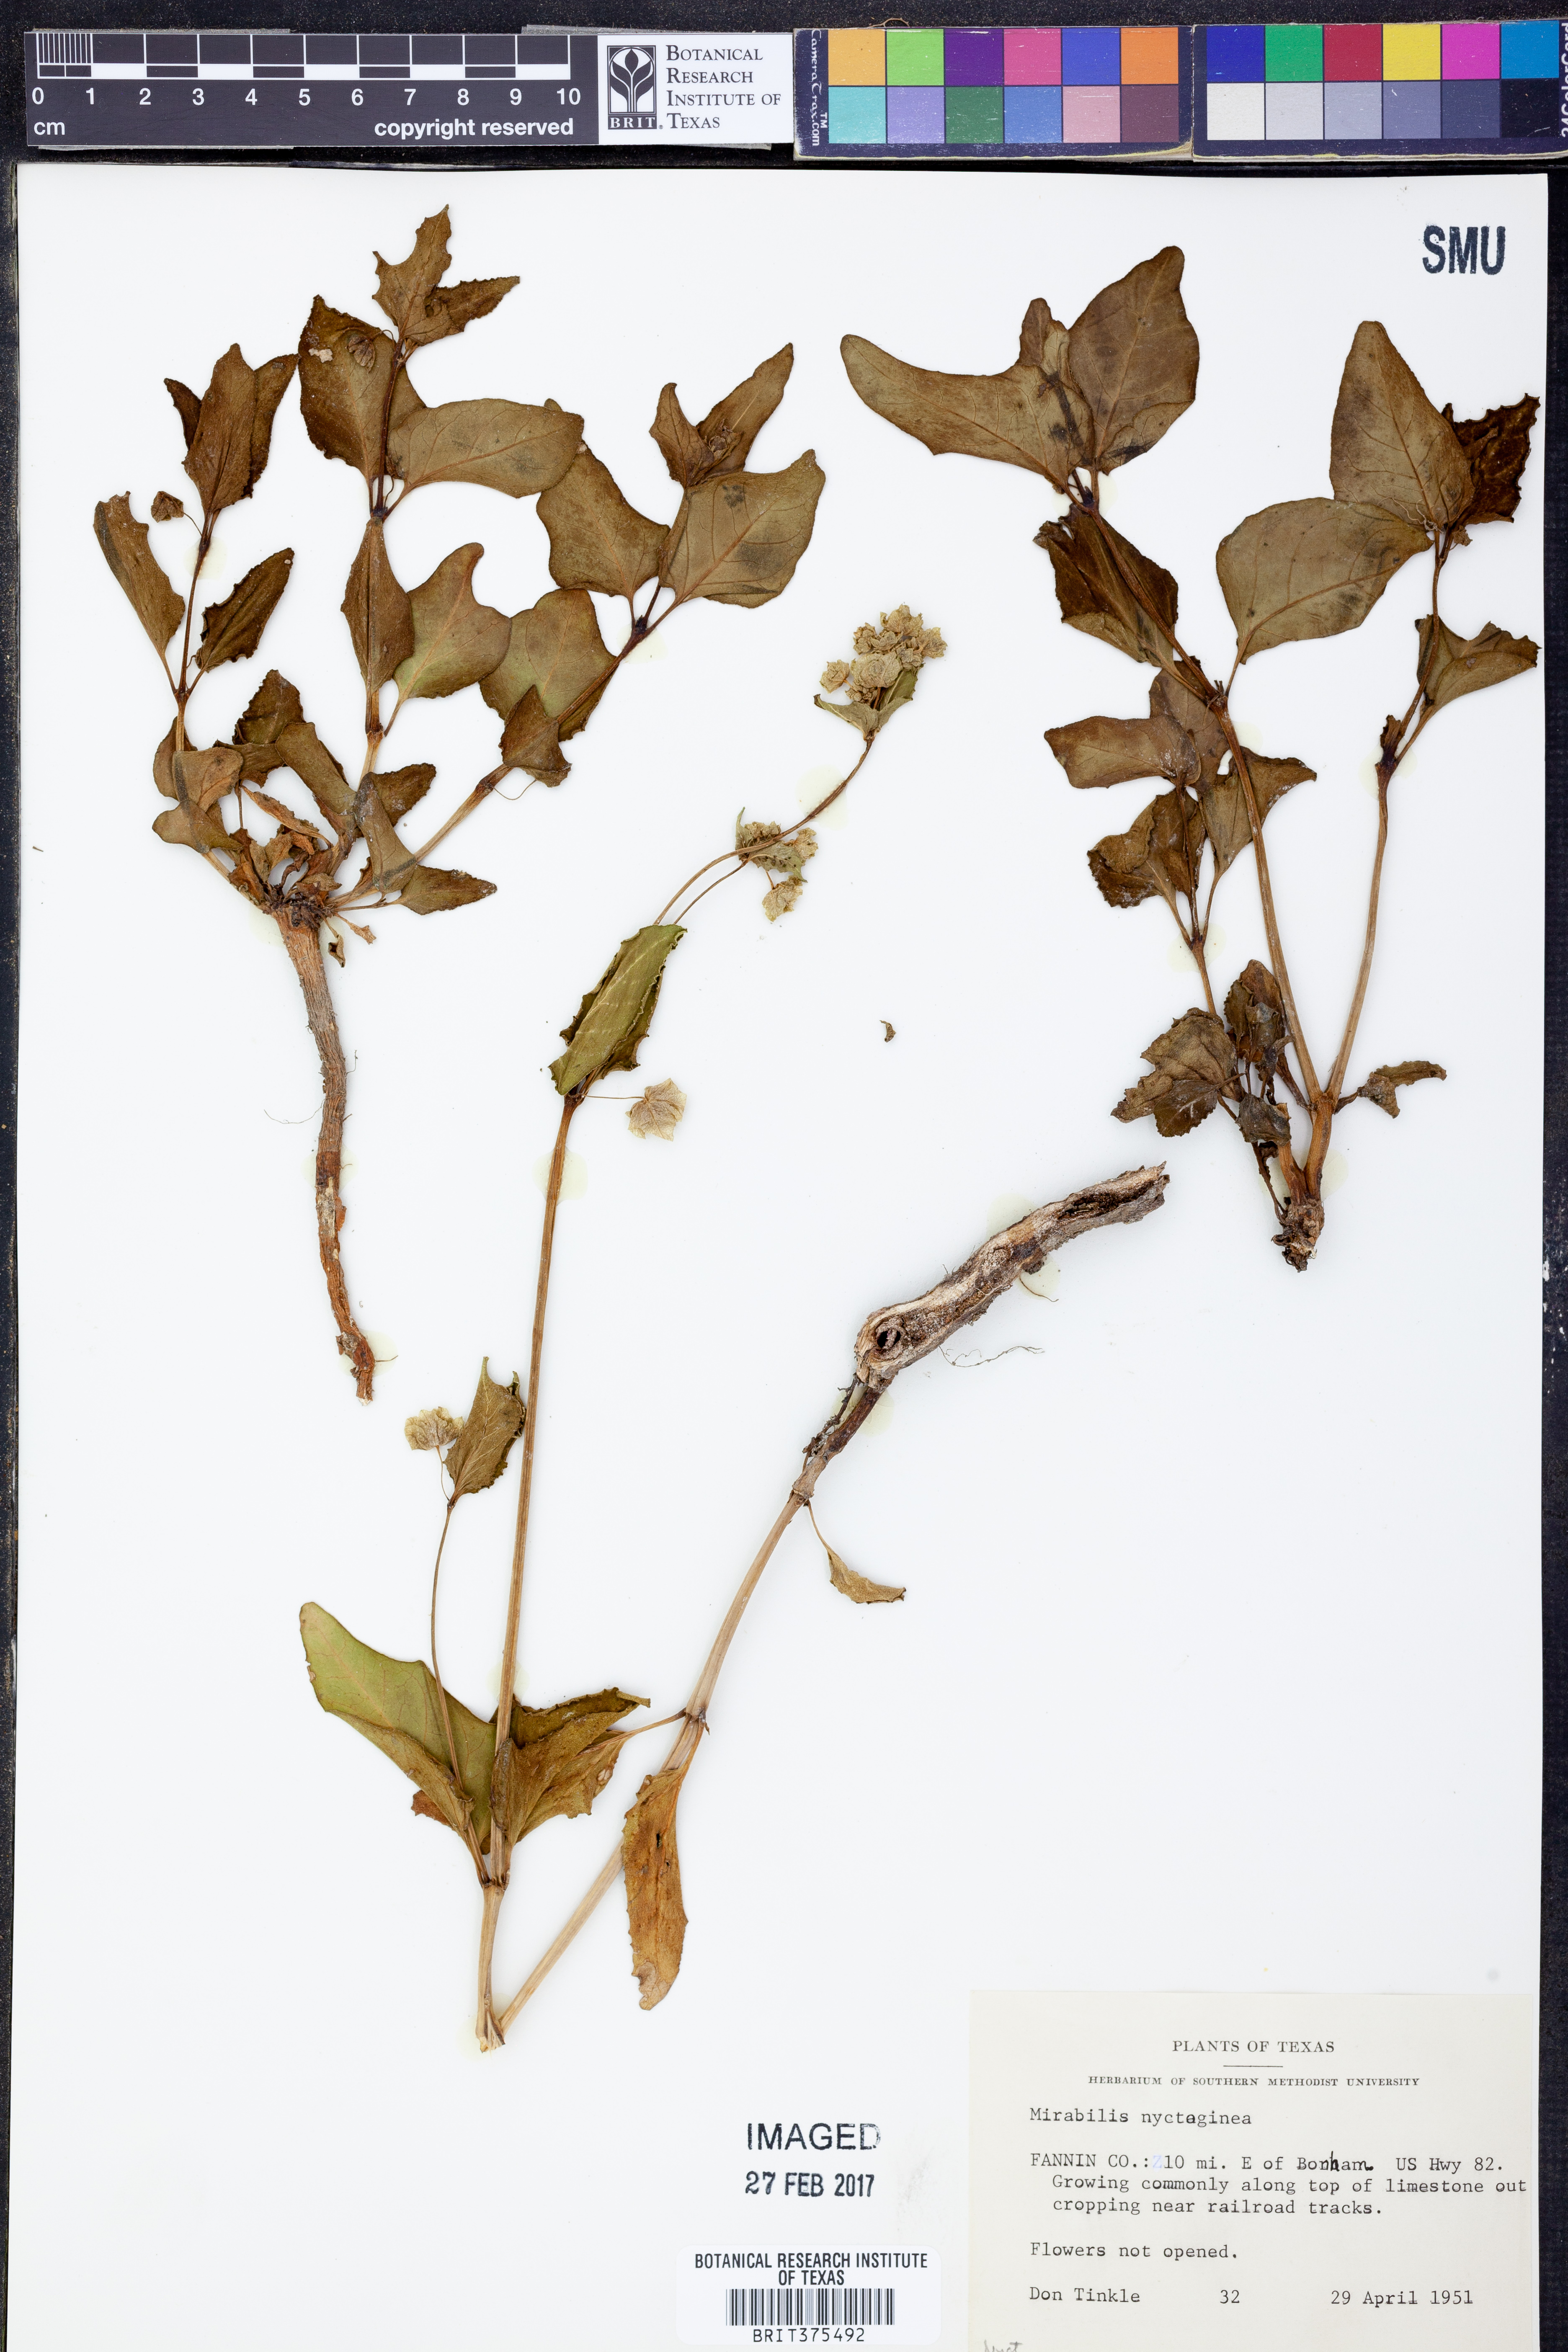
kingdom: Plantae
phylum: Tracheophyta
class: Magnoliopsida
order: Caryophyllales
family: Nyctaginaceae
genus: Mirabilis
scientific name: Mirabilis nyctaginea
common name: Umbrella wort
